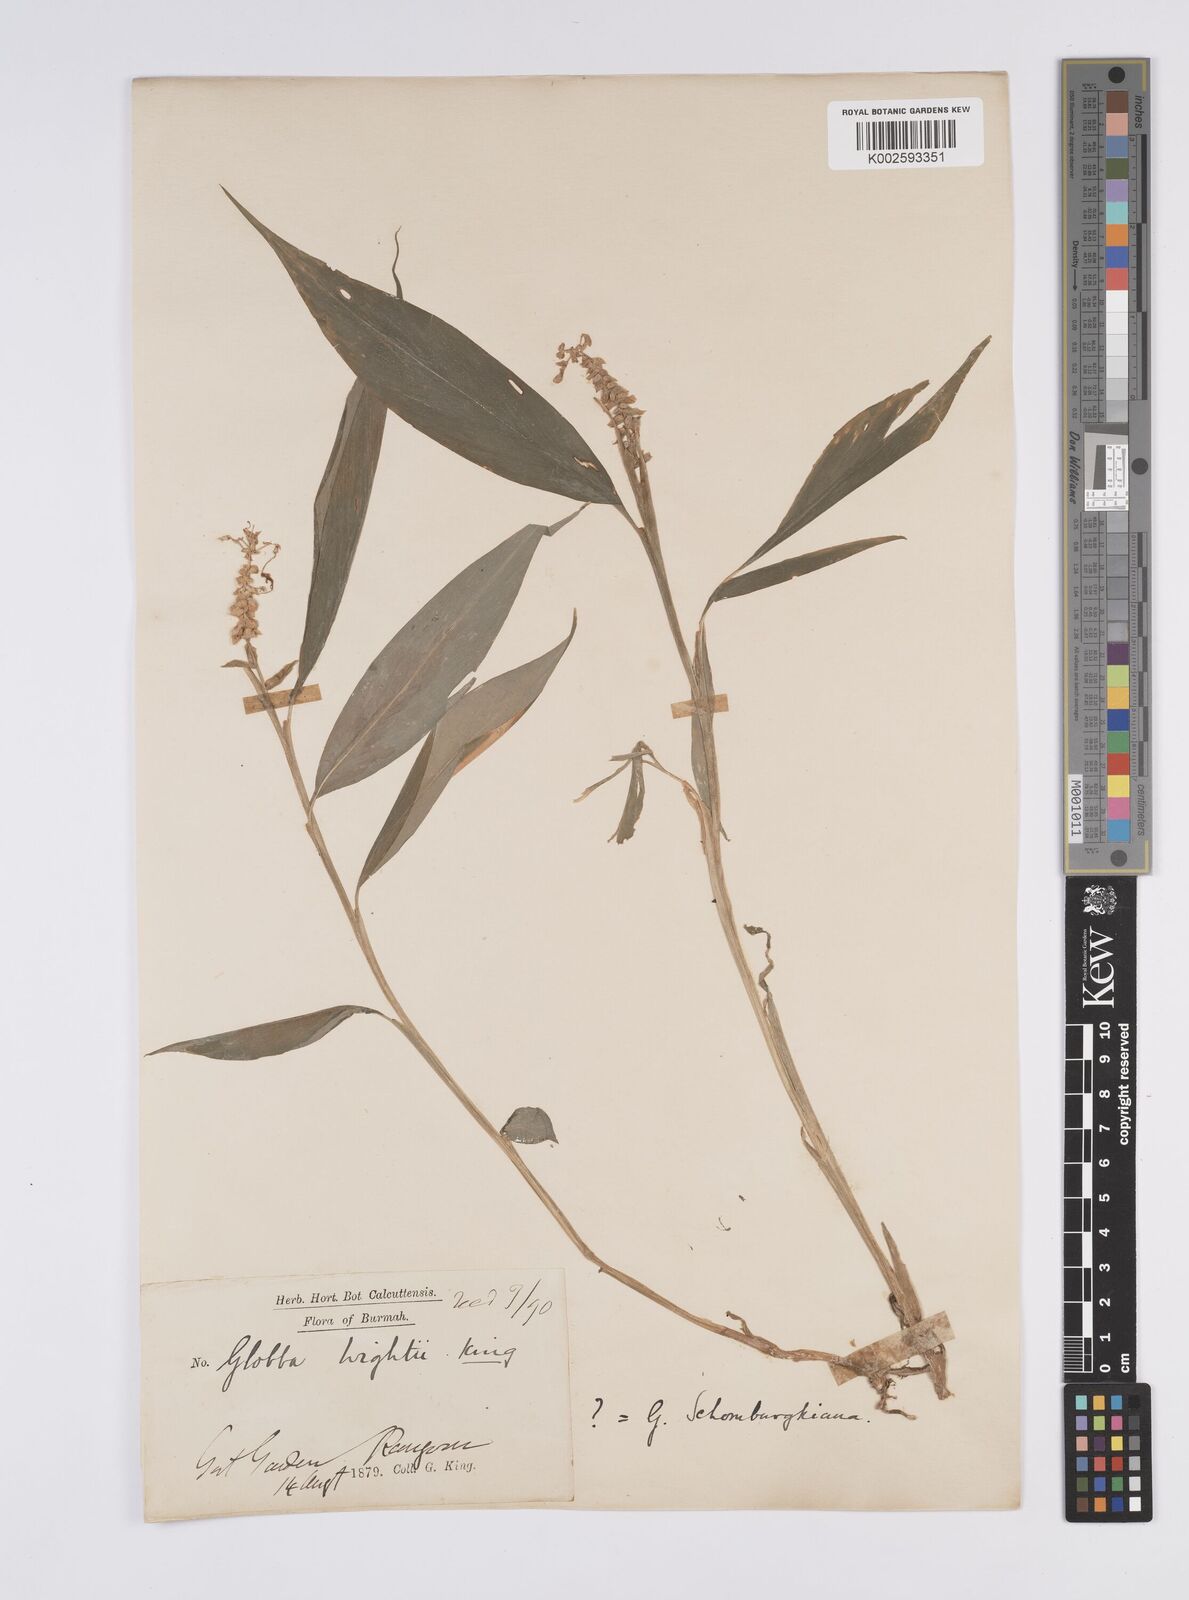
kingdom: Plantae
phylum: Tracheophyta
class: Liliopsida
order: Zingiberales
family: Zingiberaceae
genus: Globba
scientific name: Globba schomburgkii
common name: Dancing girl ginger
